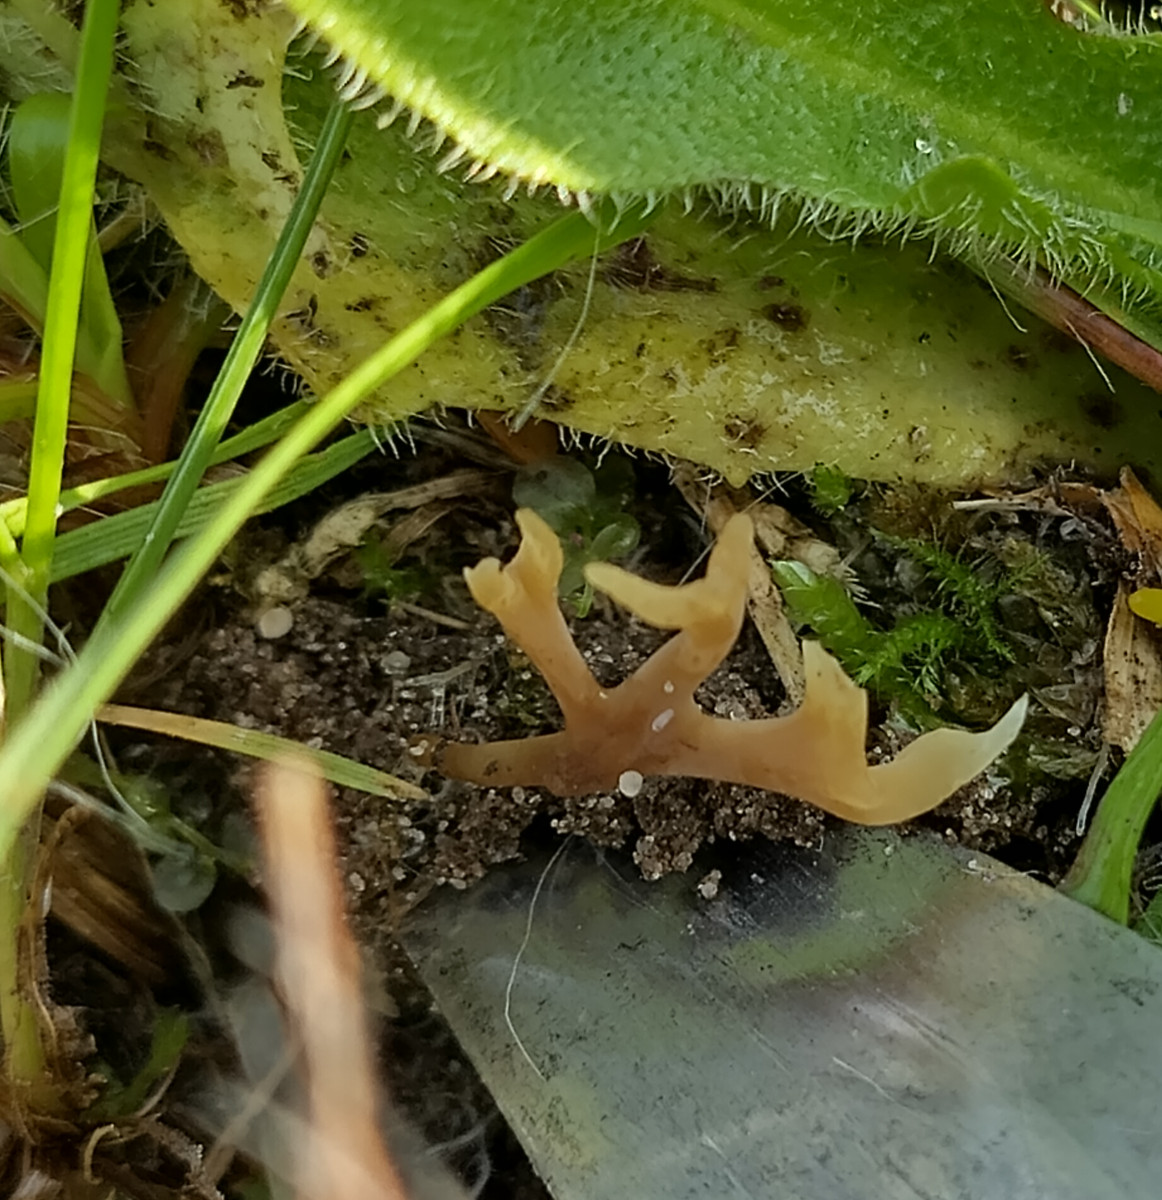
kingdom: Fungi
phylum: Basidiomycota
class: Agaricomycetes
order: Agaricales
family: Clavariaceae
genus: Ramariopsis
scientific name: Ramariopsis
